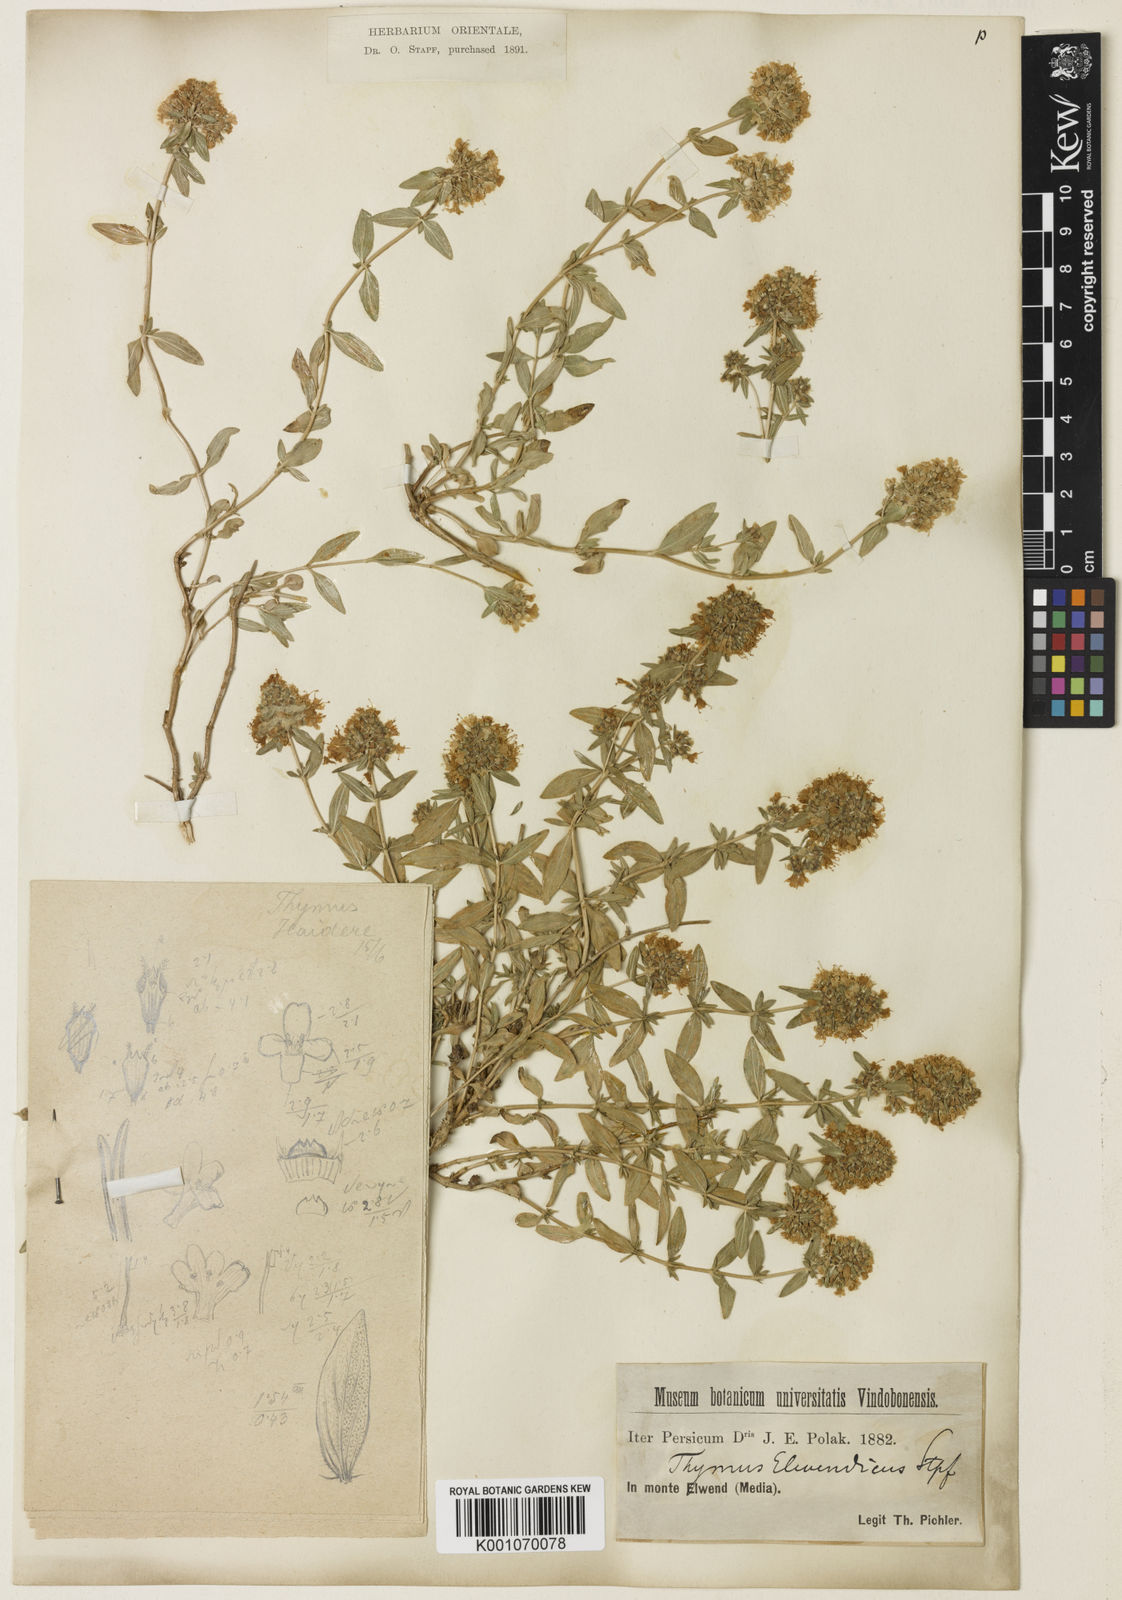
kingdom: Plantae
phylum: Tracheophyta
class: Magnoliopsida
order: Lamiales
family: Lamiaceae
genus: Thymus
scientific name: Thymus daenensis
